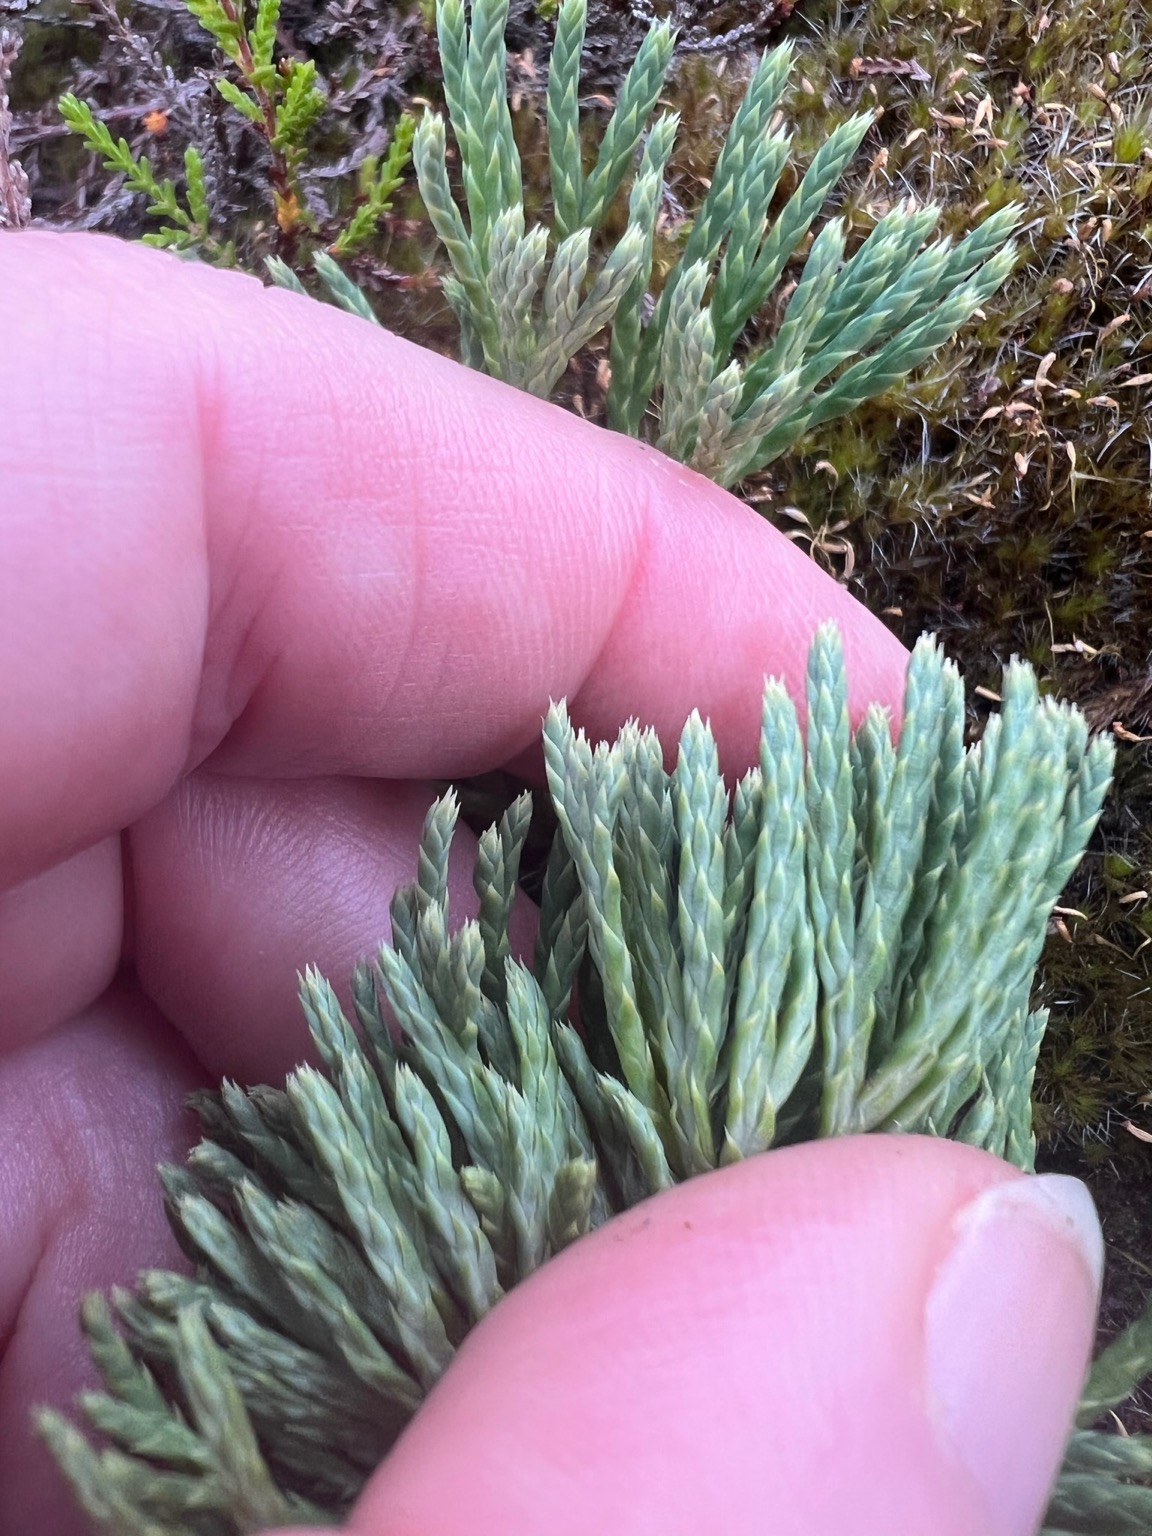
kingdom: Plantae
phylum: Tracheophyta
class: Lycopodiopsida
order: Lycopodiales
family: Lycopodiaceae
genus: Diphasiastrum
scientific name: Diphasiastrum tristachyum
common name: Cypres-ulvefod
